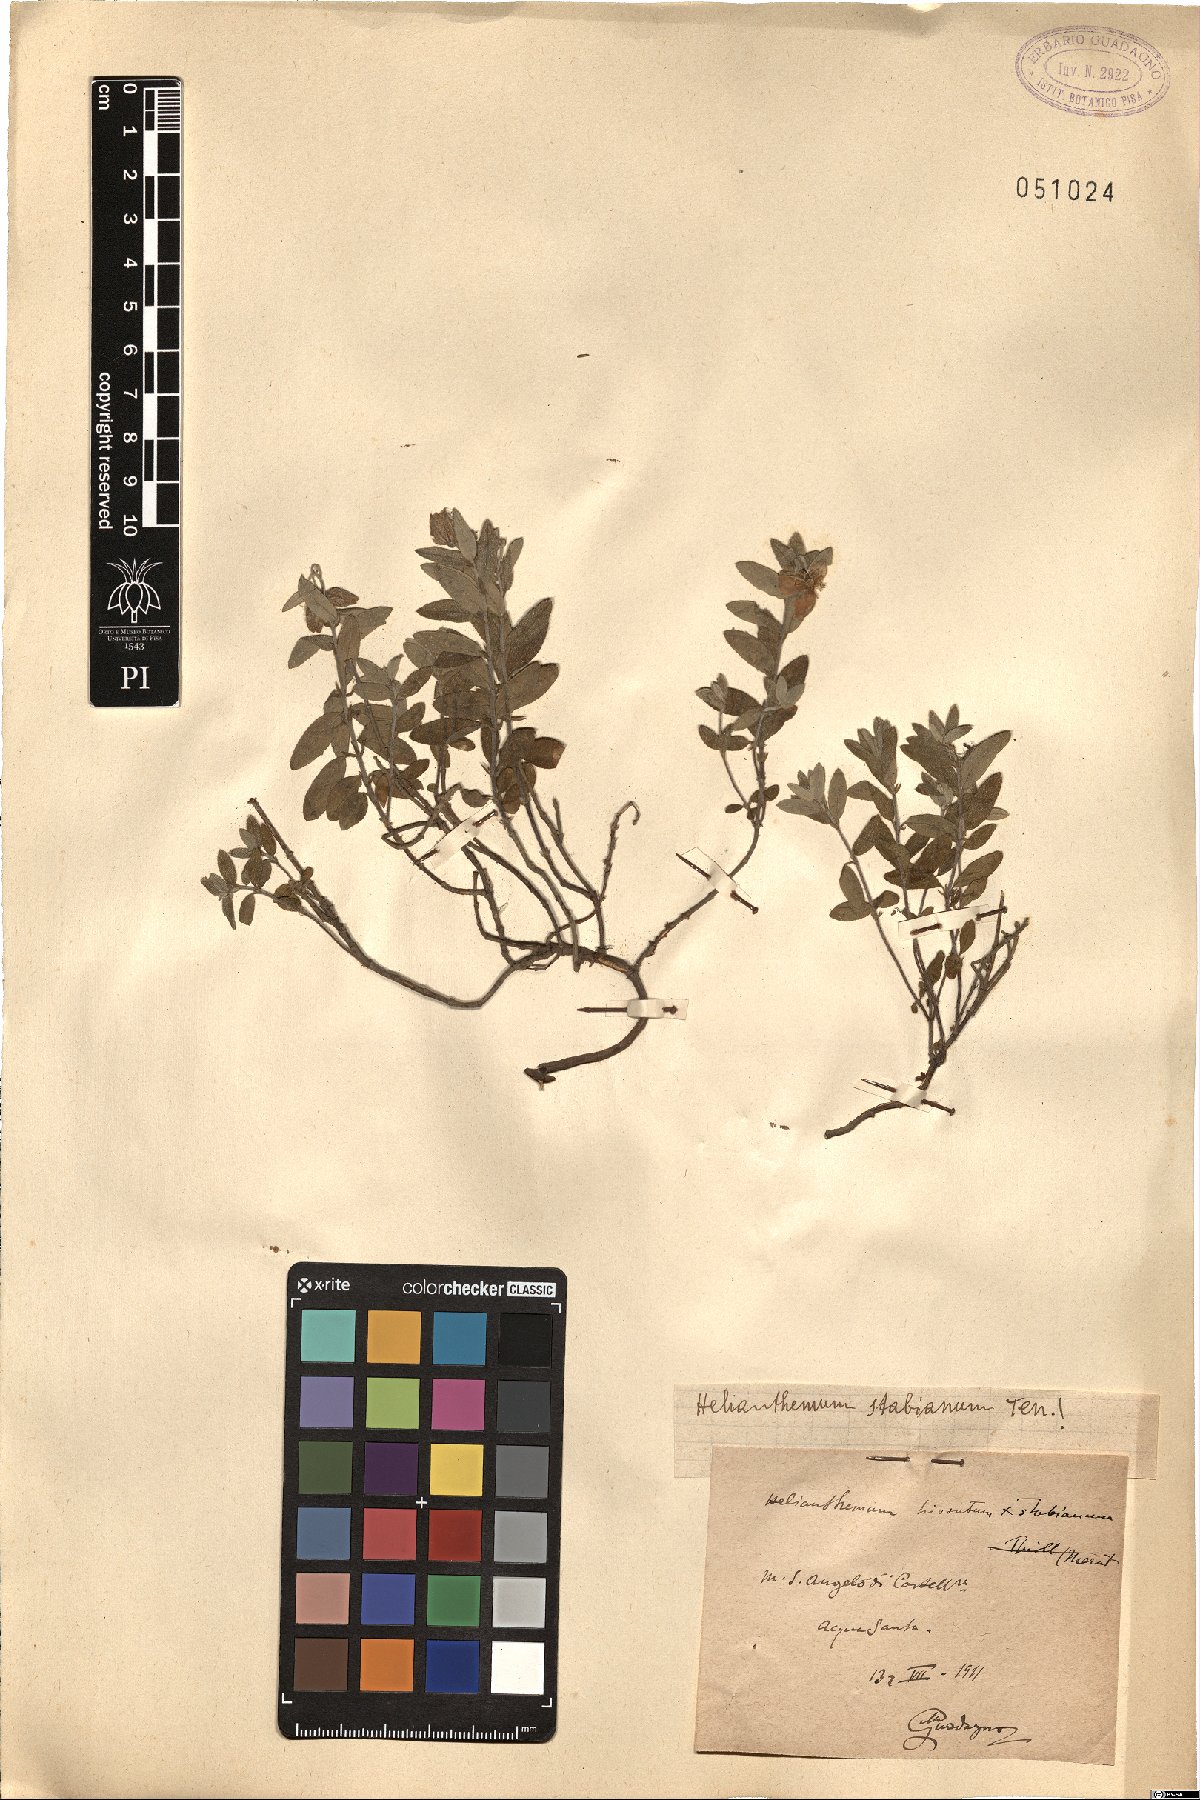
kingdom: Plantae
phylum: Tracheophyta
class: Magnoliopsida
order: Malvales
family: Cistaceae
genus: Helianthemum
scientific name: Helianthemum croceum
